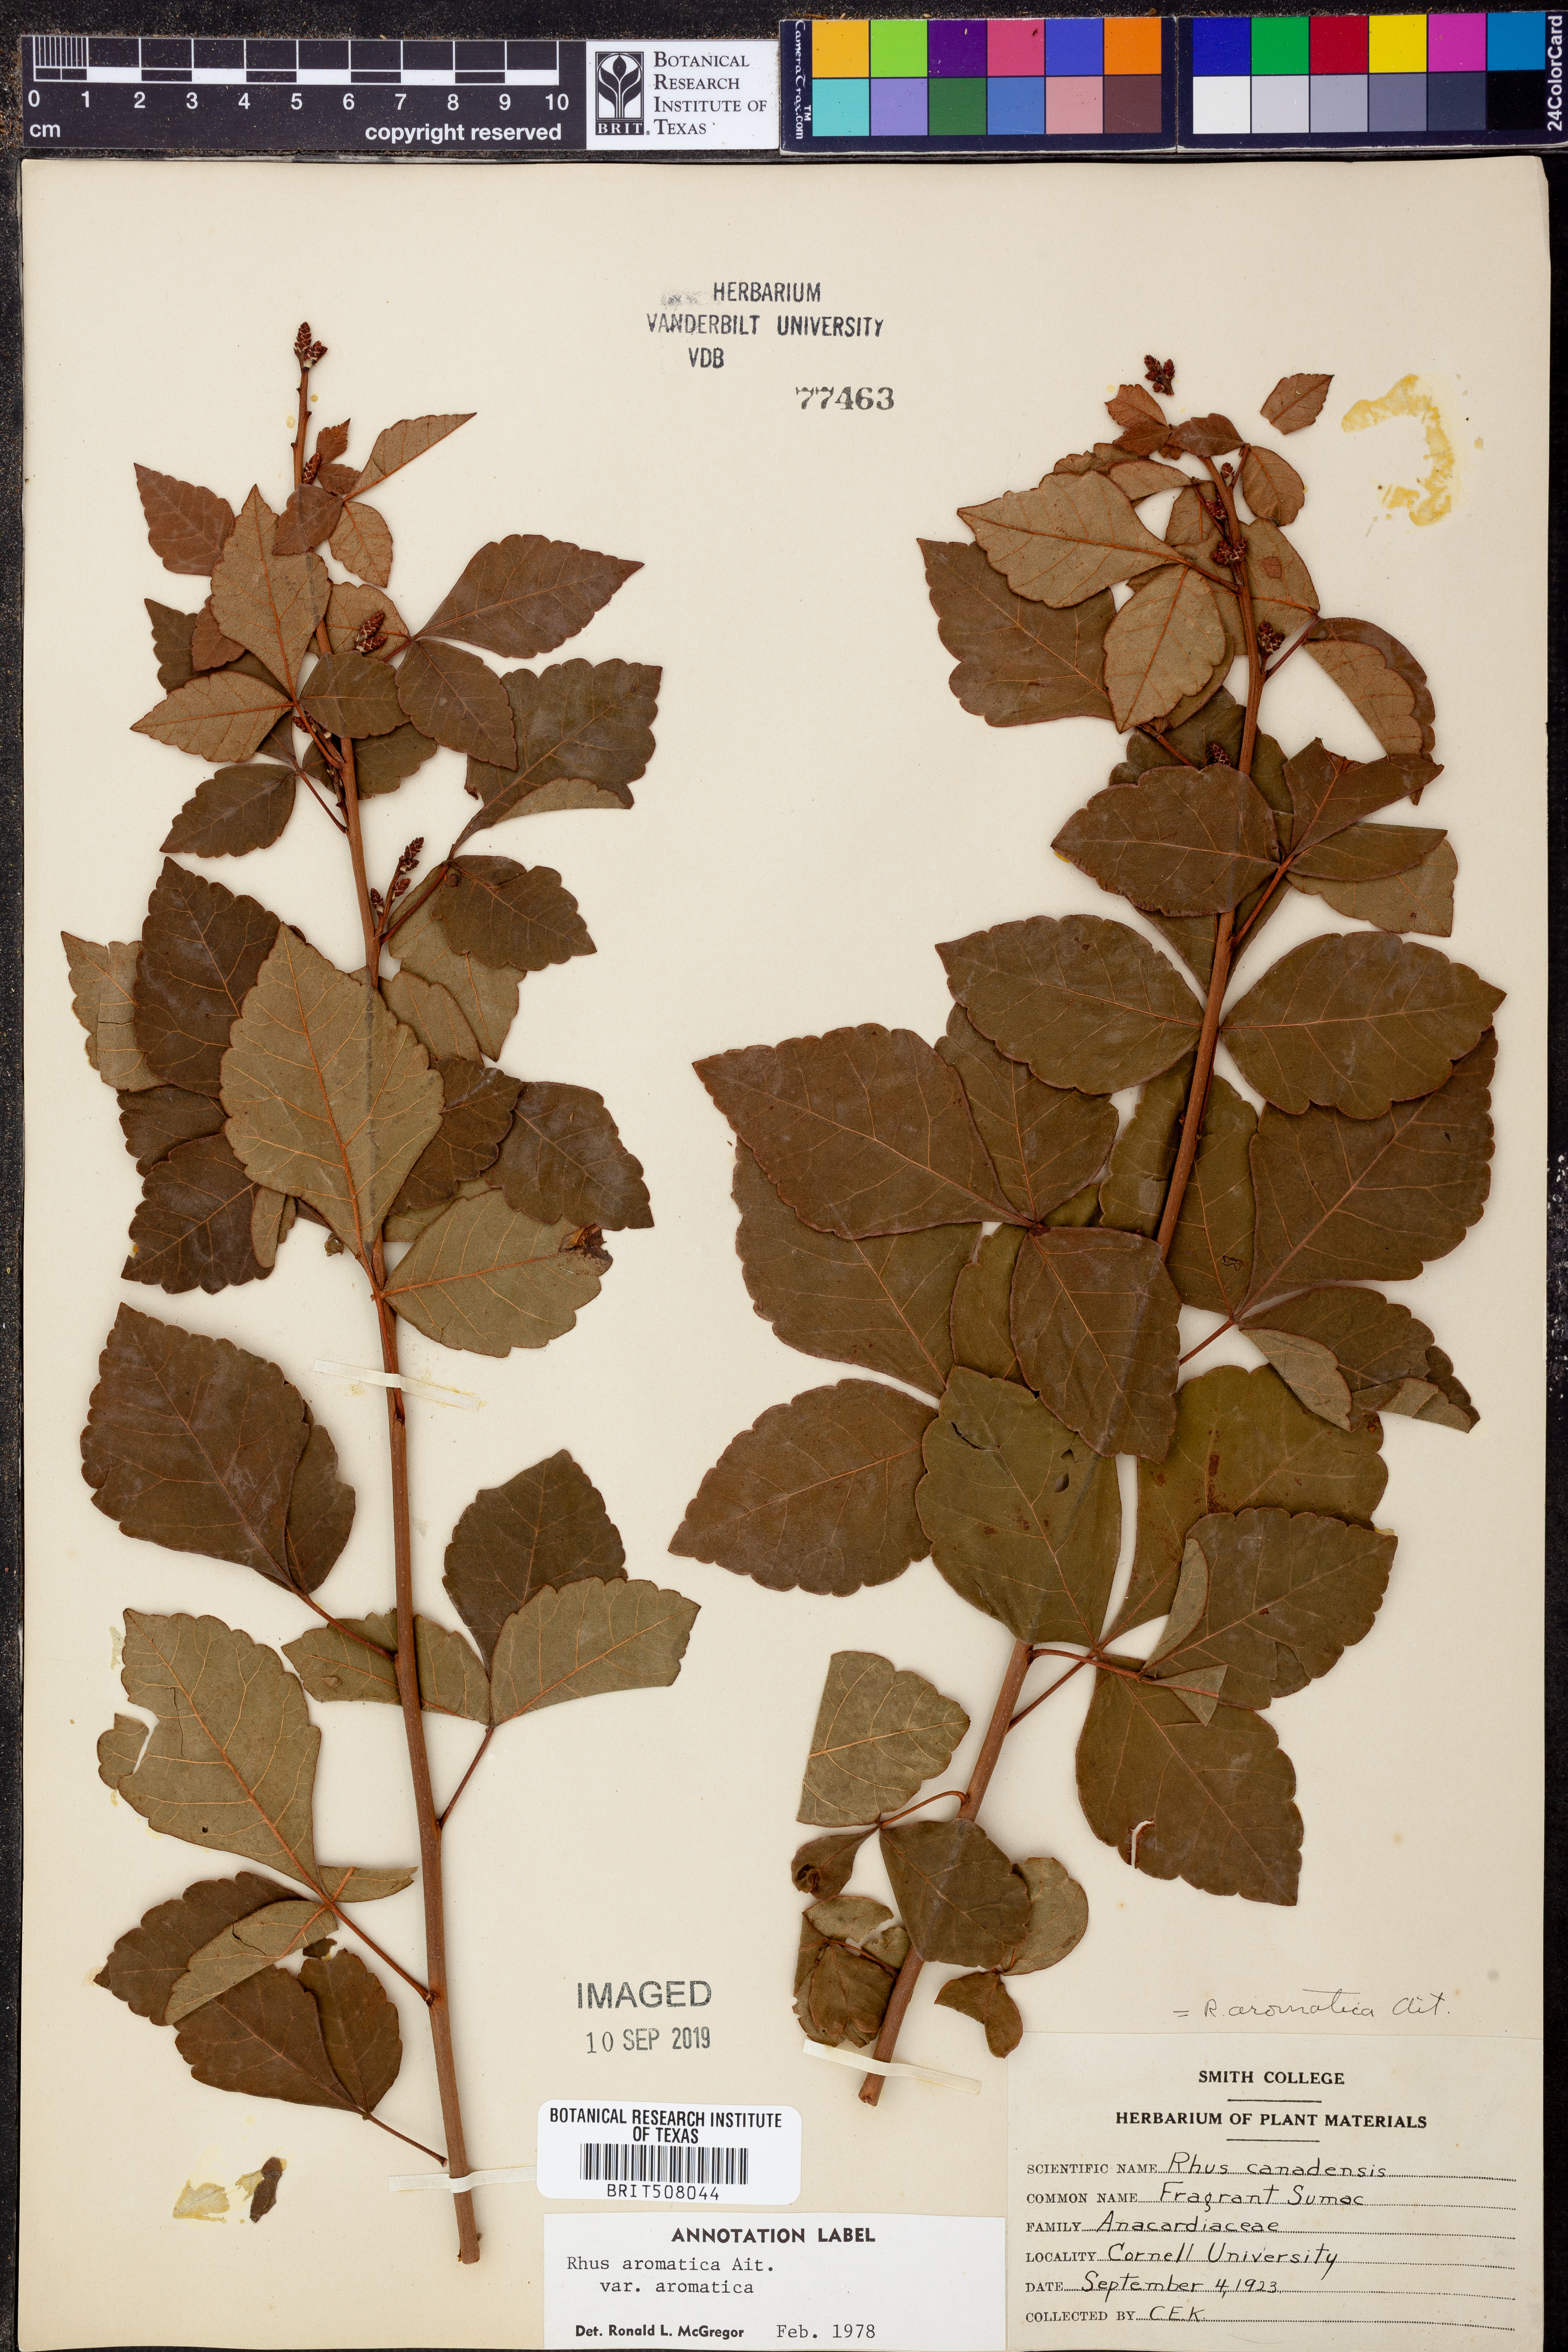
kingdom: Plantae
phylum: Tracheophyta
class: Magnoliopsida
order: Sapindales
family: Anacardiaceae
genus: Rhus
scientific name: Rhus aromatica
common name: Aromatic sumac
